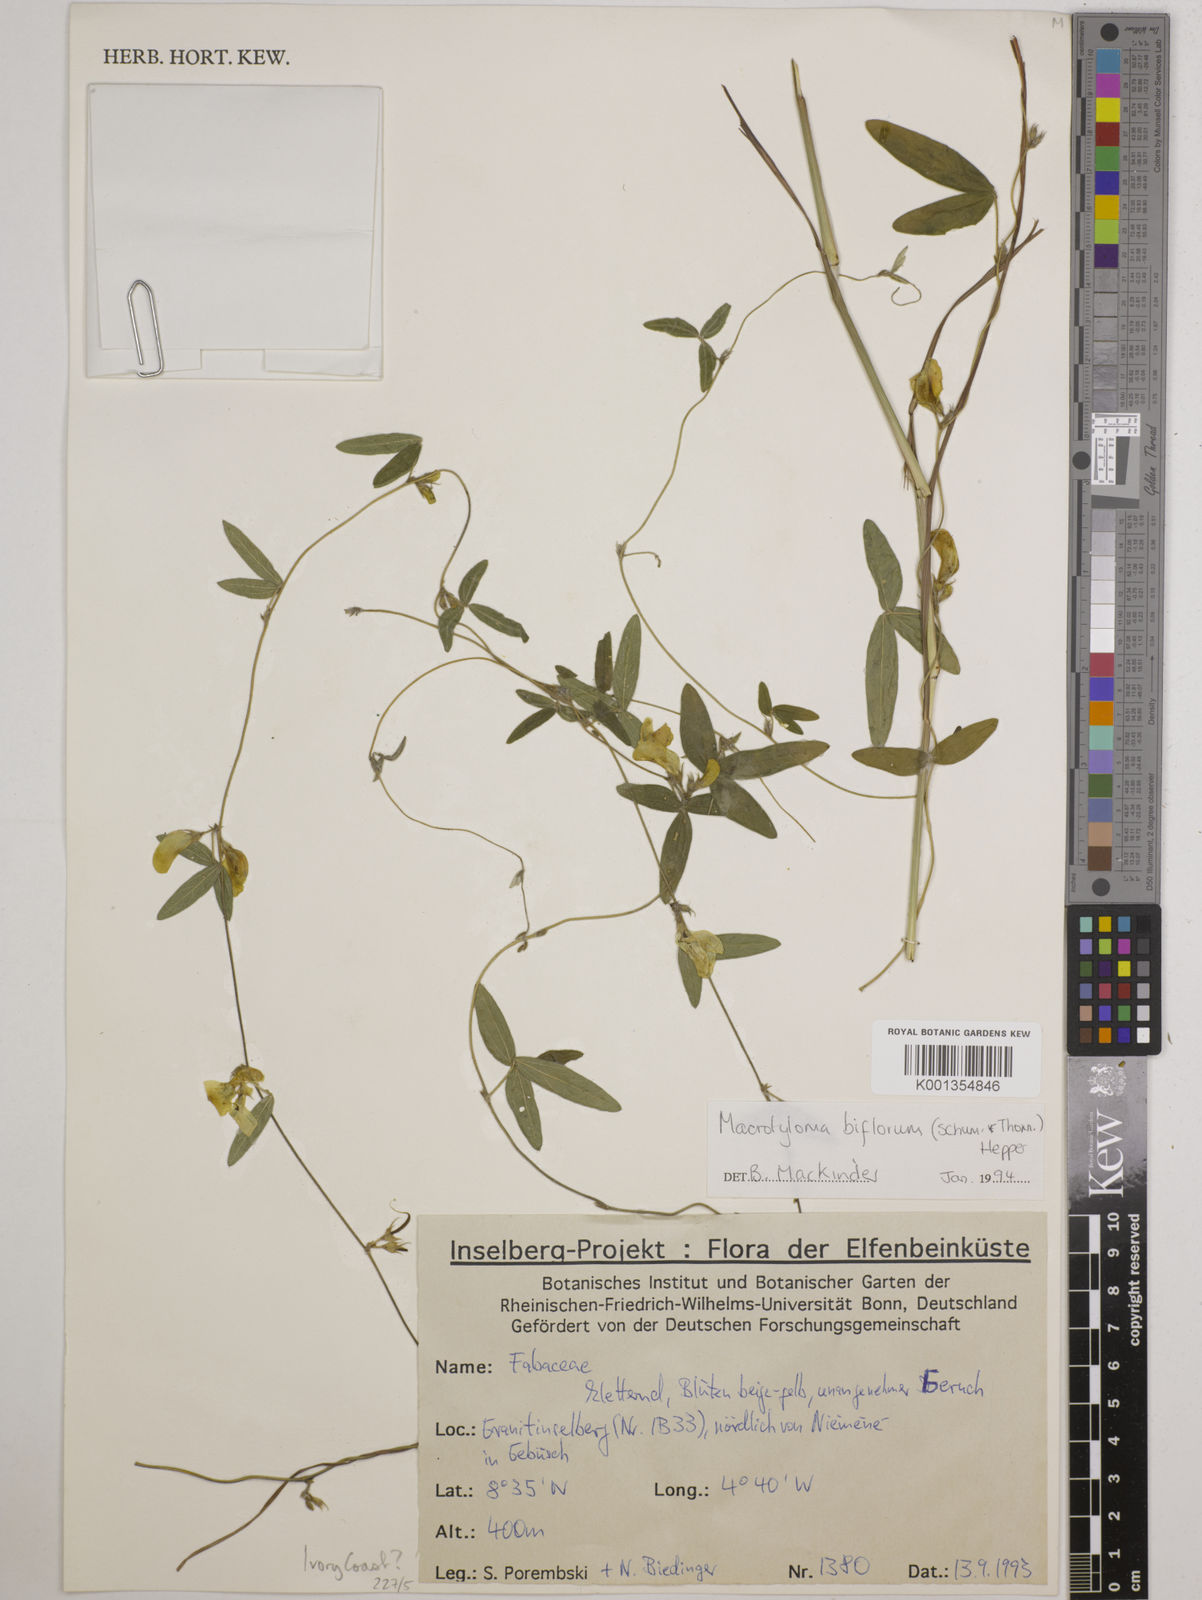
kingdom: Plantae
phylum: Tracheophyta
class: Magnoliopsida
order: Fabales
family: Fabaceae
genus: Macrotyloma
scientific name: Macrotyloma biflorum
